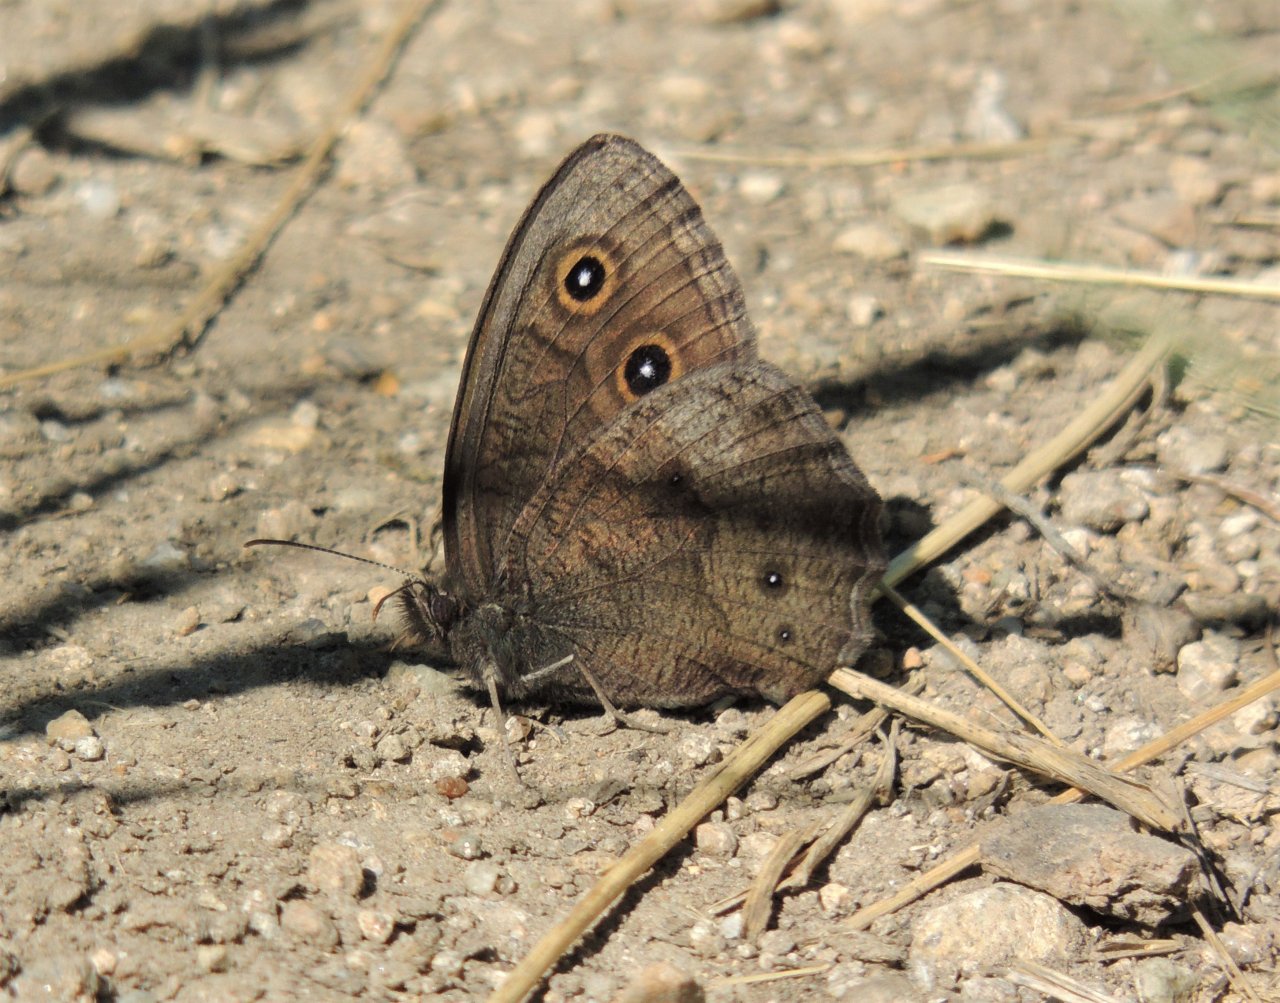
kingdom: Animalia
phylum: Arthropoda
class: Insecta
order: Lepidoptera
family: Nymphalidae
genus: Cercyonis
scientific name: Cercyonis pegala
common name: Common Wood-Nymph
